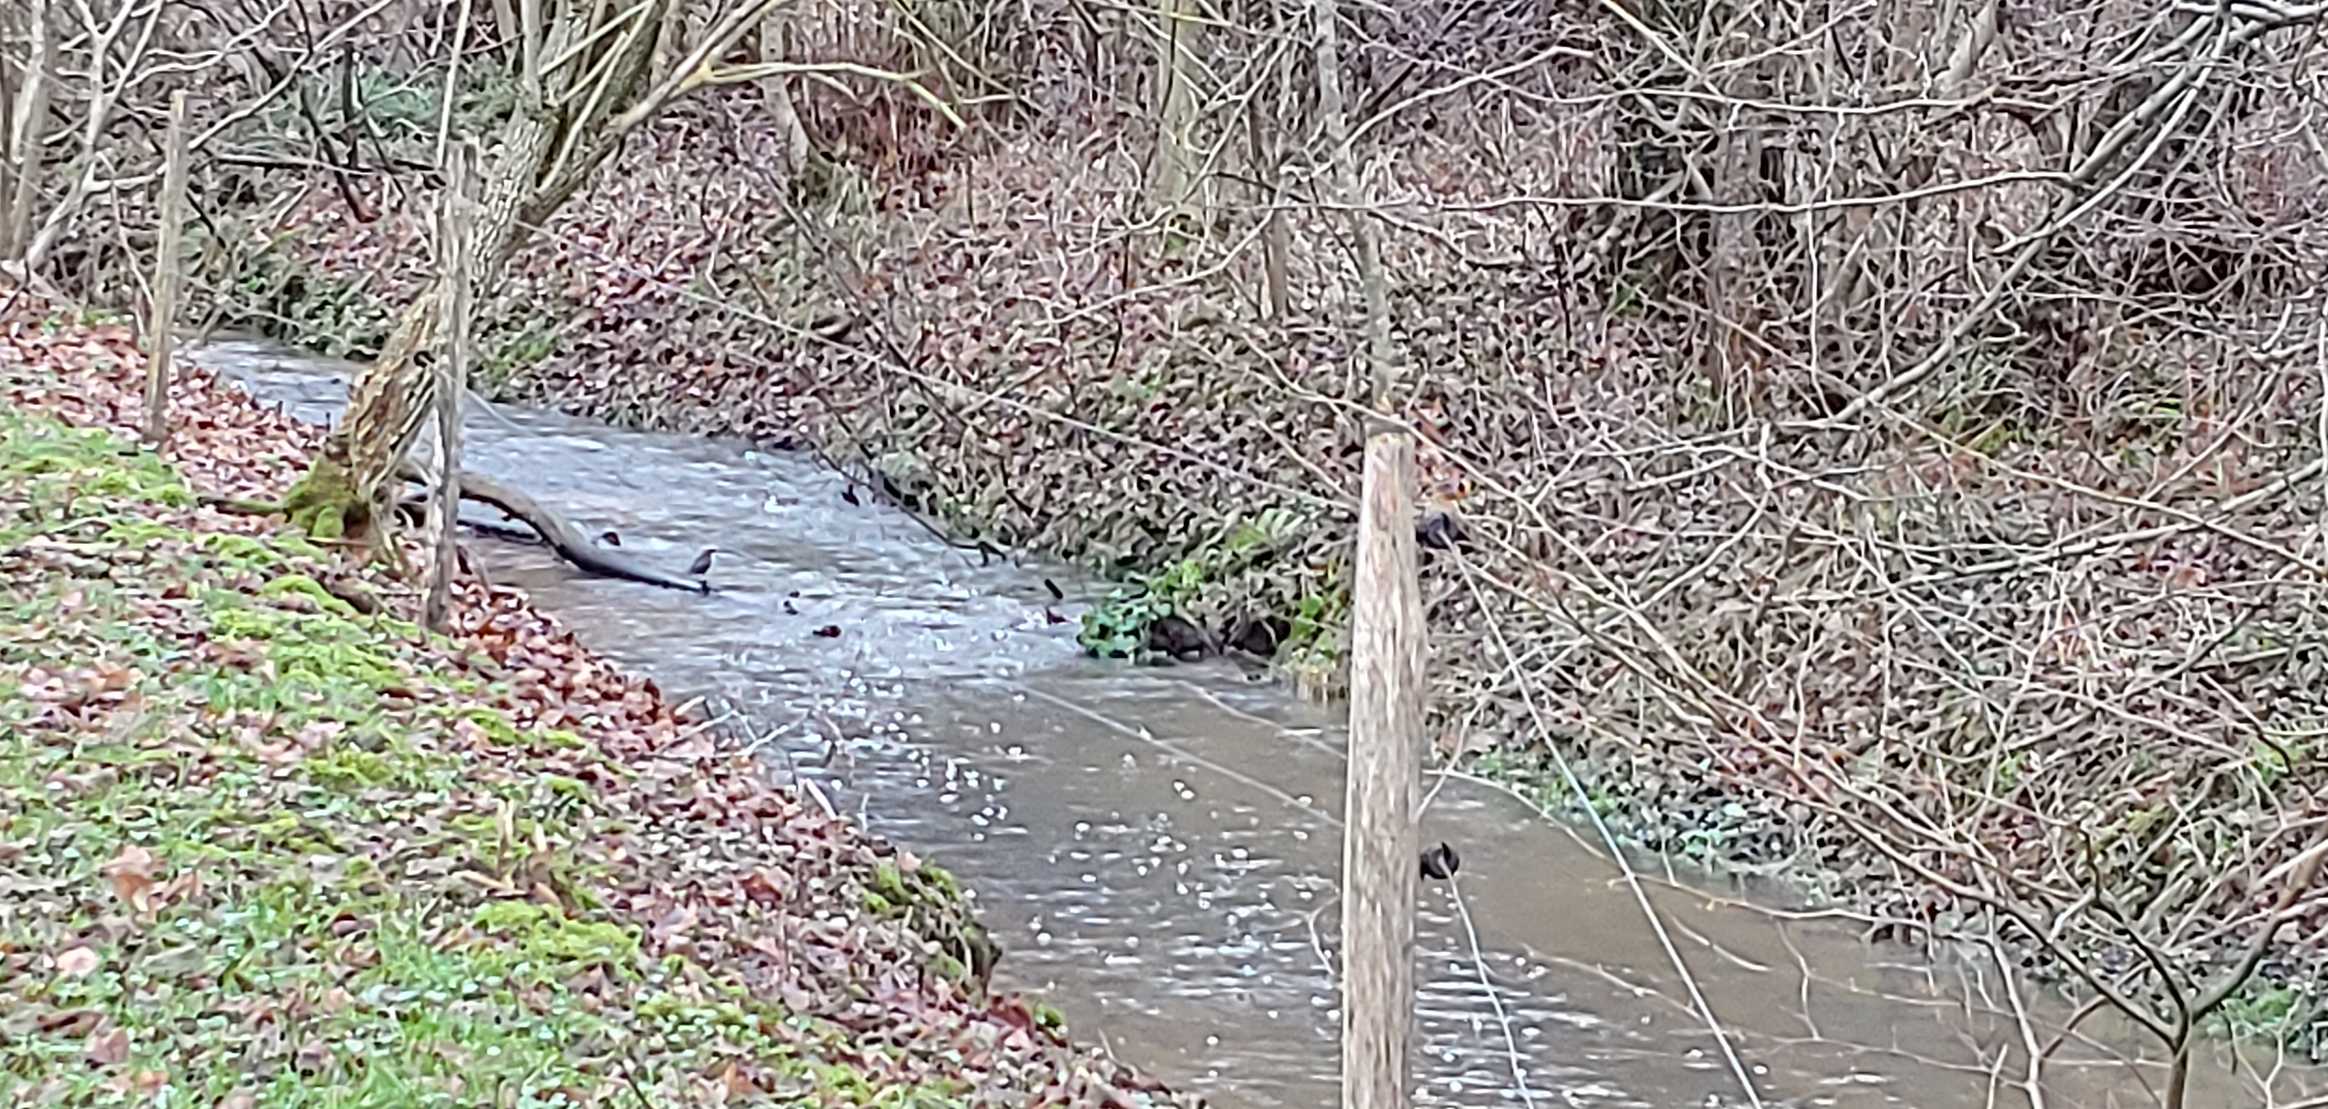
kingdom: Animalia
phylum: Chordata
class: Aves
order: Passeriformes
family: Cinclidae
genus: Cinclus
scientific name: Cinclus cinclus
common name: Vandstær
